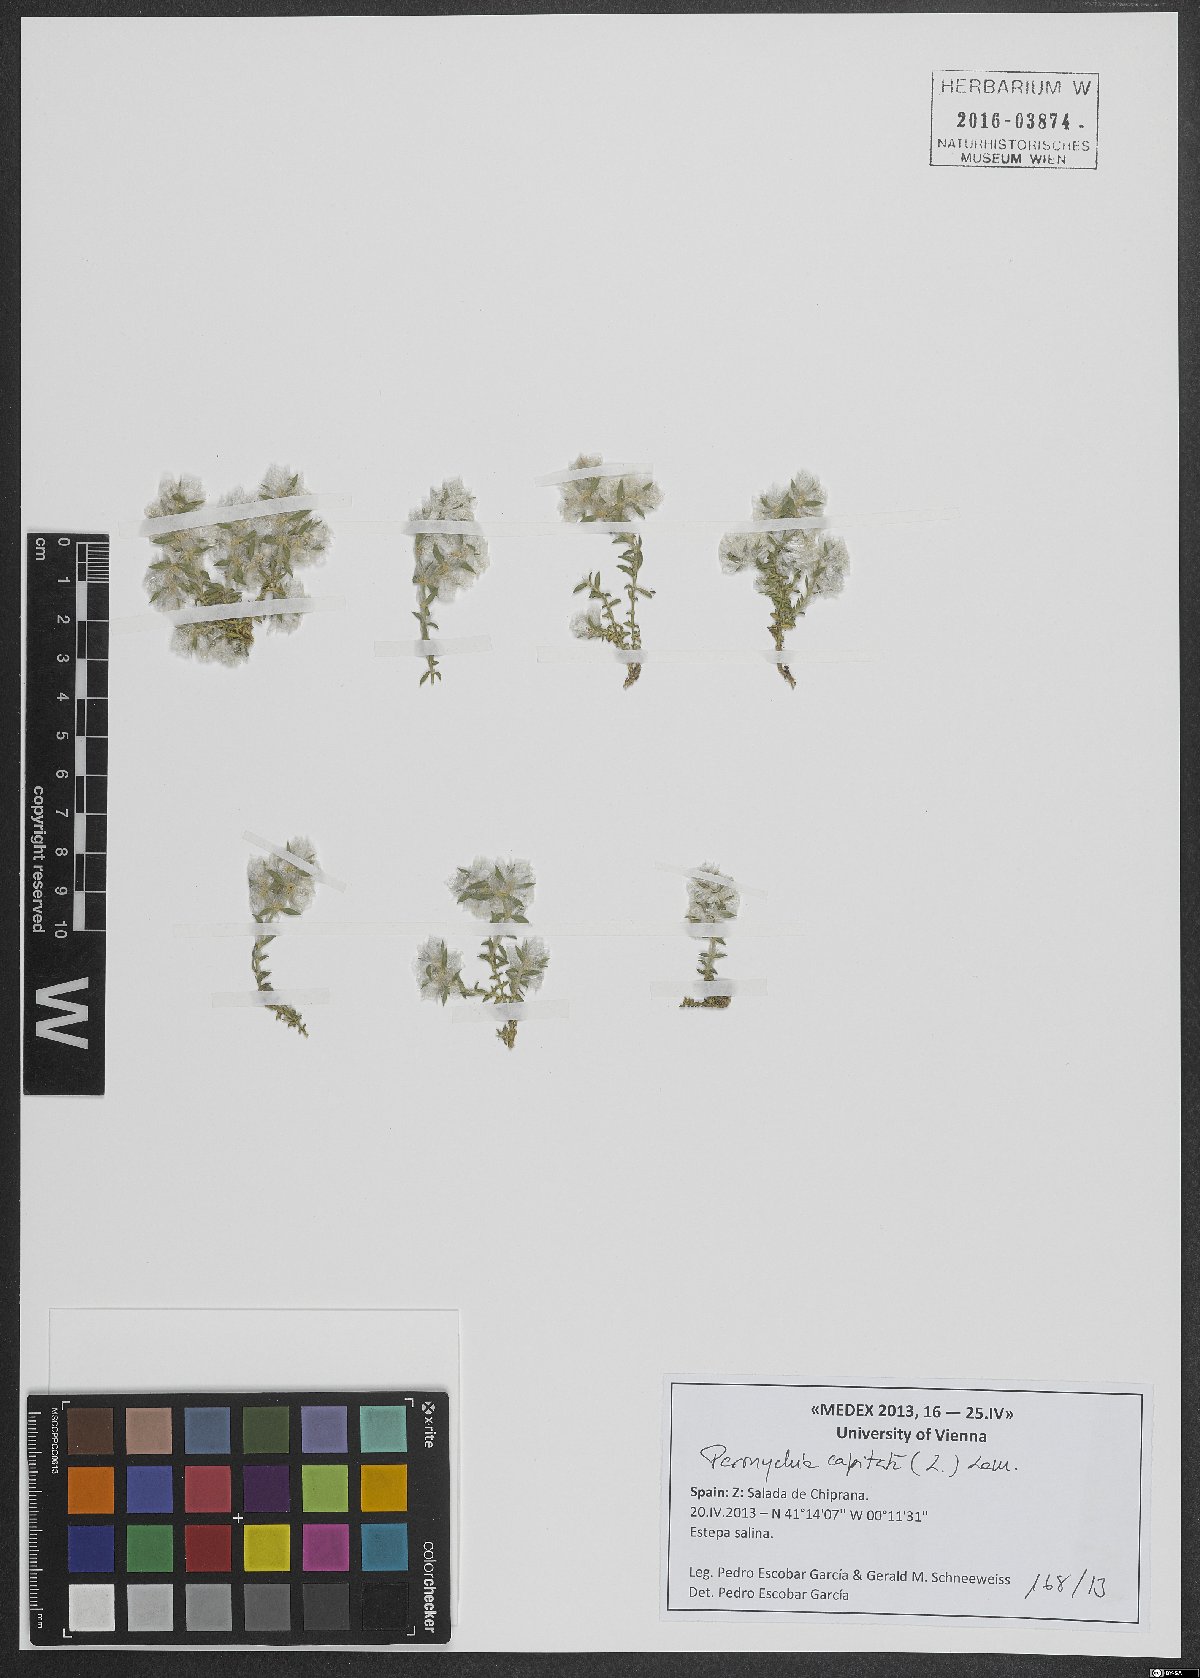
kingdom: Plantae
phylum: Tracheophyta
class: Magnoliopsida
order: Caryophyllales
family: Caryophyllaceae
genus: Paronychia
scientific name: Paronychia capitata
